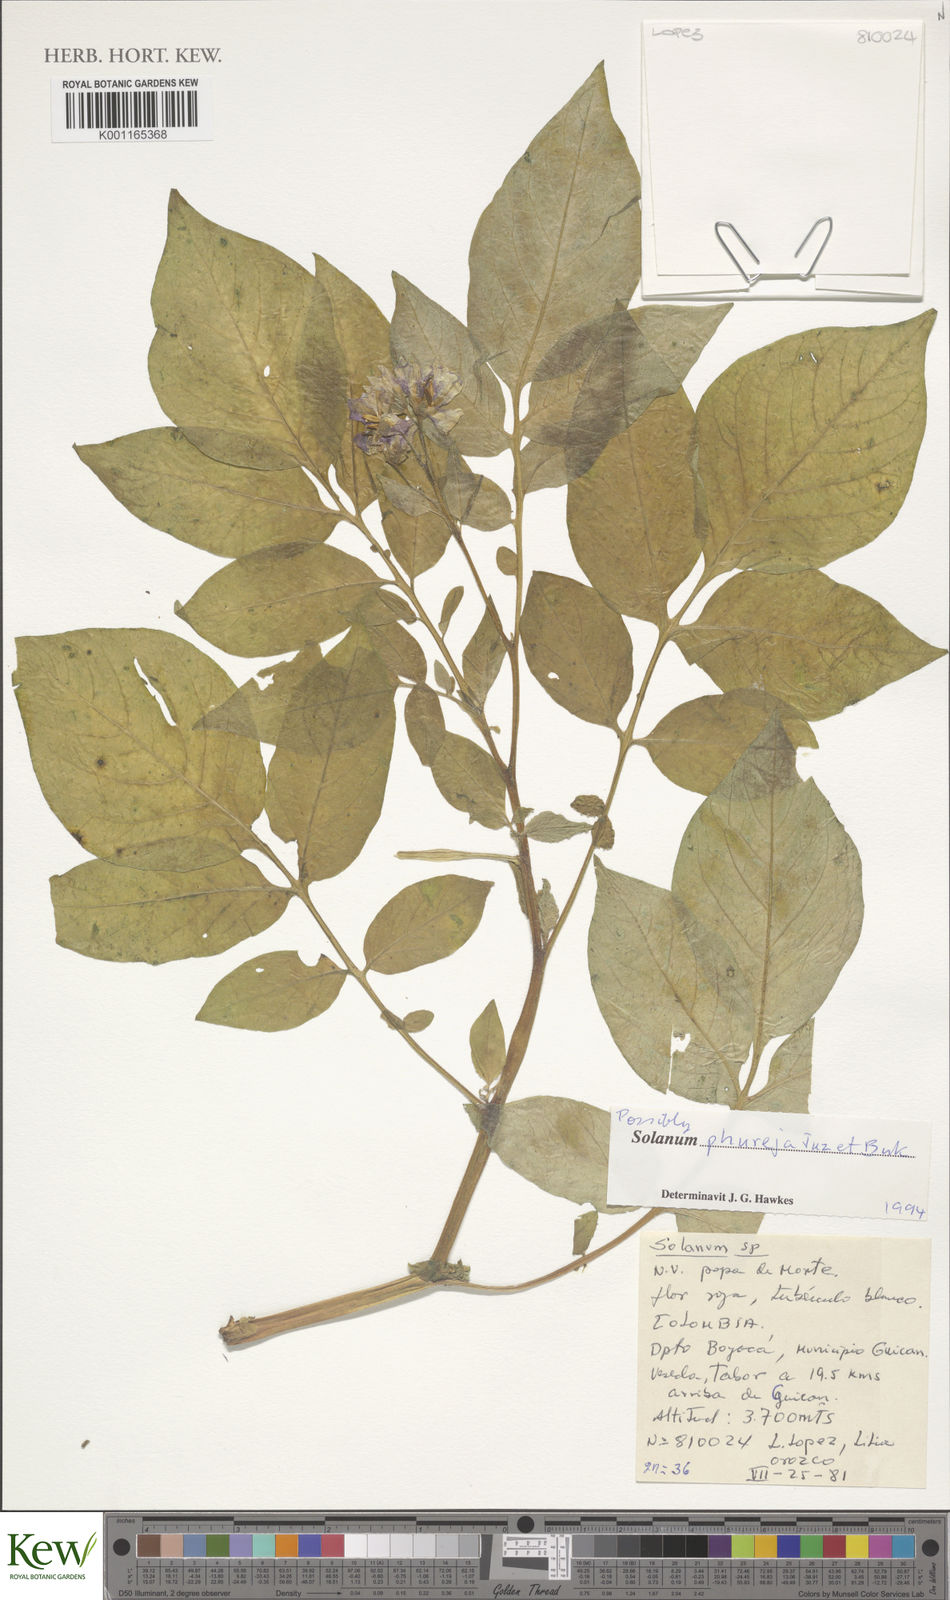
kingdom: Plantae
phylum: Tracheophyta
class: Magnoliopsida
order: Solanales
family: Solanaceae
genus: Solanum
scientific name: Solanum tuberosum
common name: Potato
